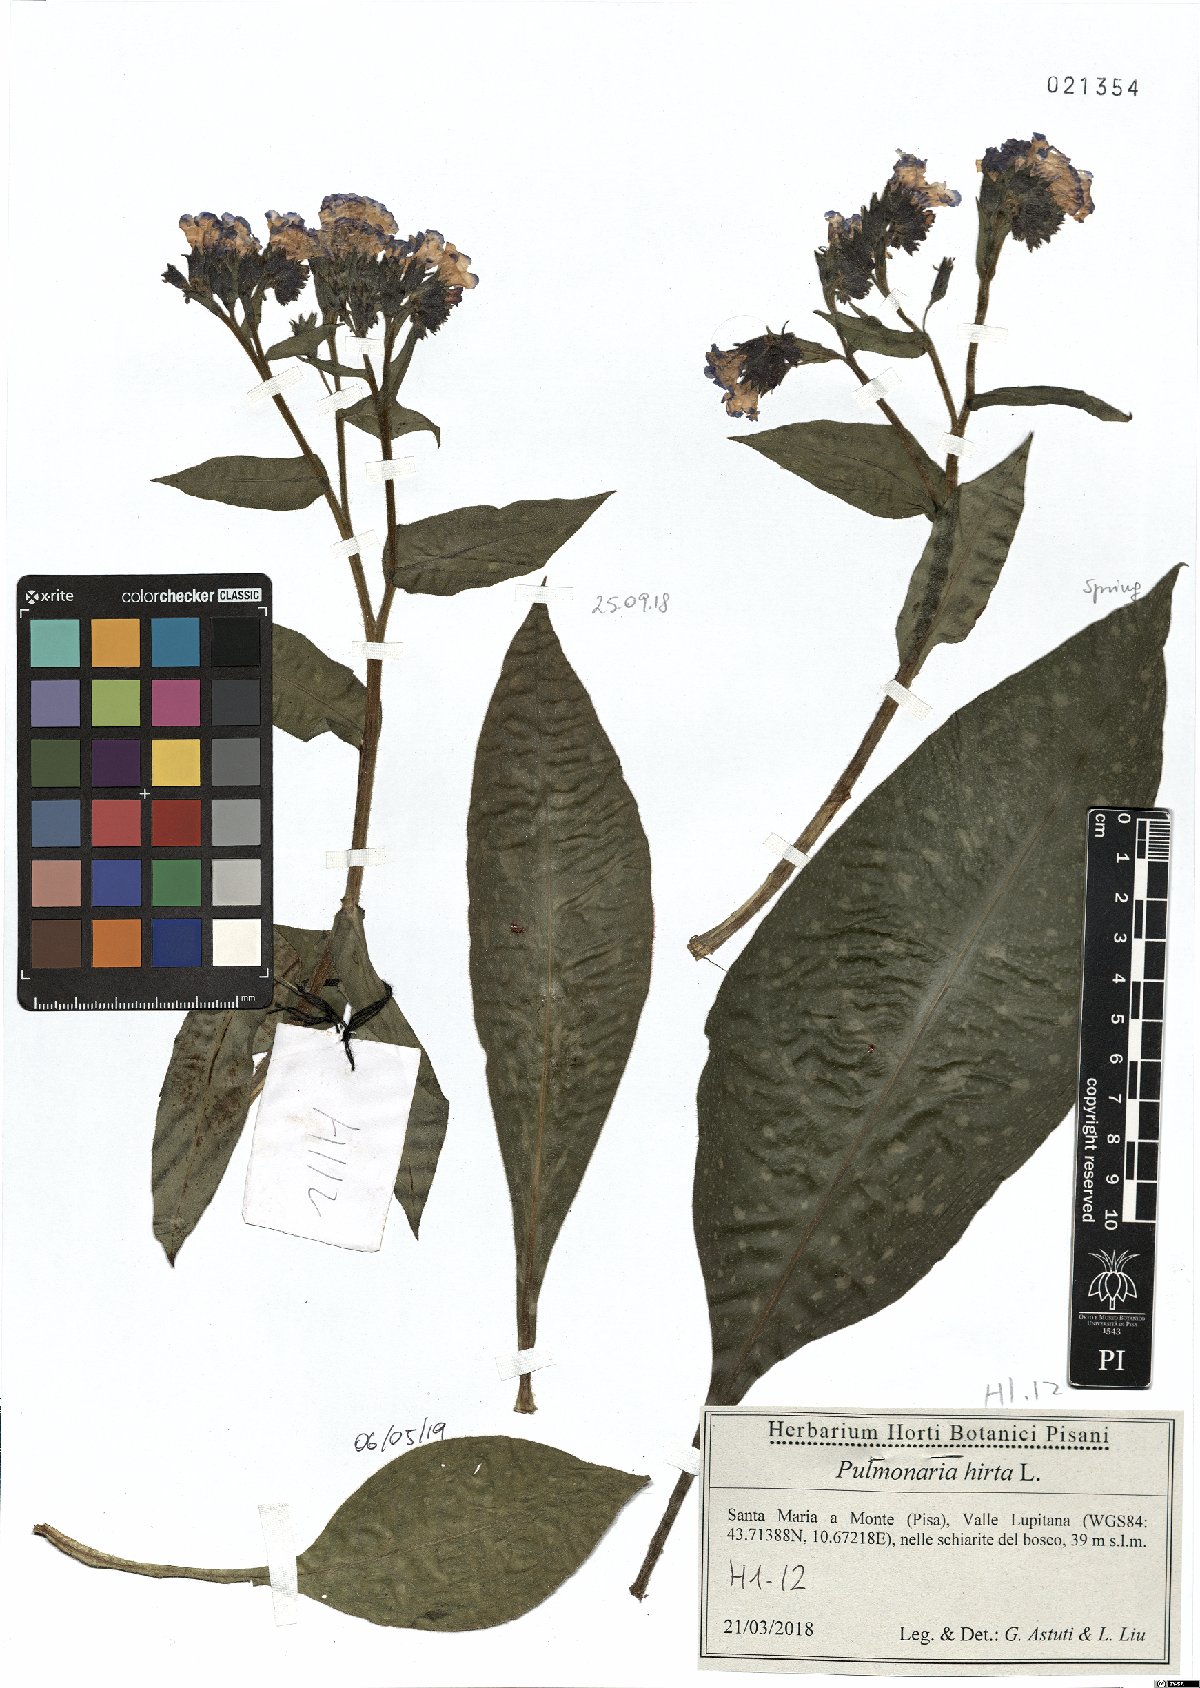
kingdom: Plantae
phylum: Tracheophyta
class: Magnoliopsida
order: Boraginales
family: Boraginaceae
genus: Pulmonaria
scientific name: Pulmonaria hirta
